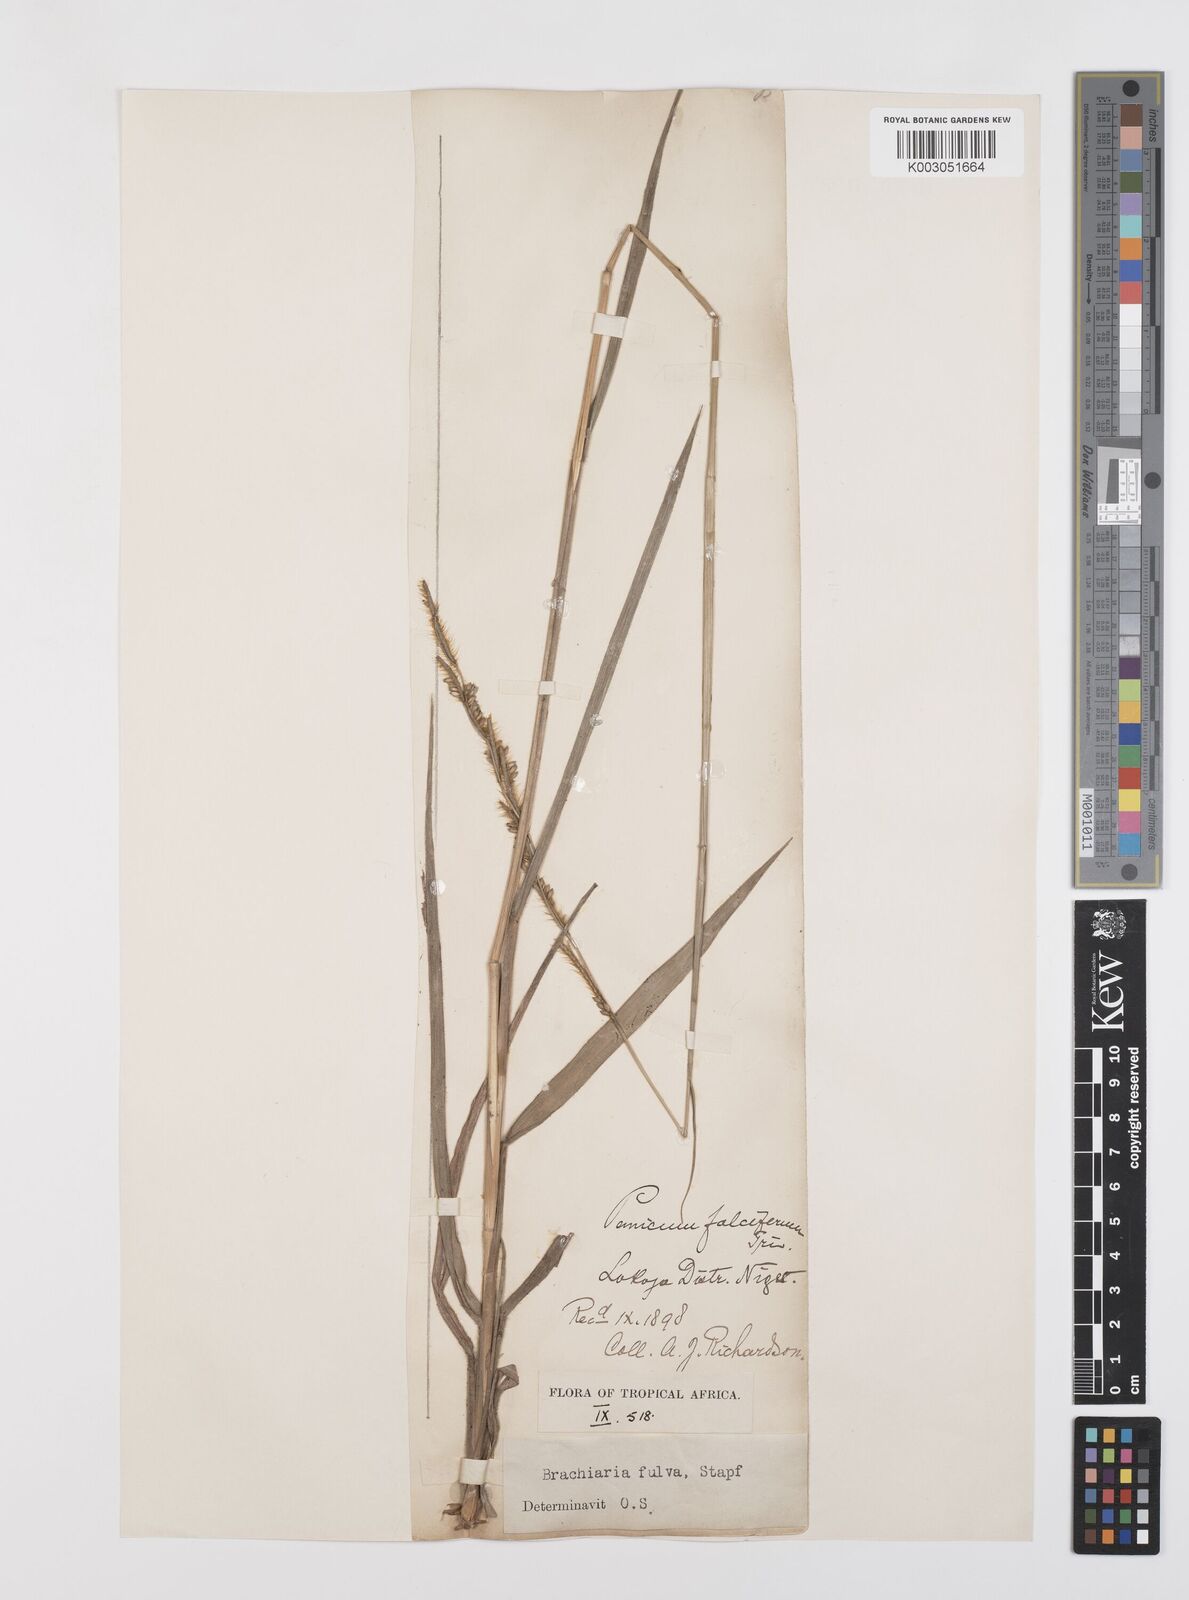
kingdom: Plantae
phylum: Tracheophyta
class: Liliopsida
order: Poales
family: Poaceae
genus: Urochloa
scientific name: Urochloa jubata
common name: Buffalograss
